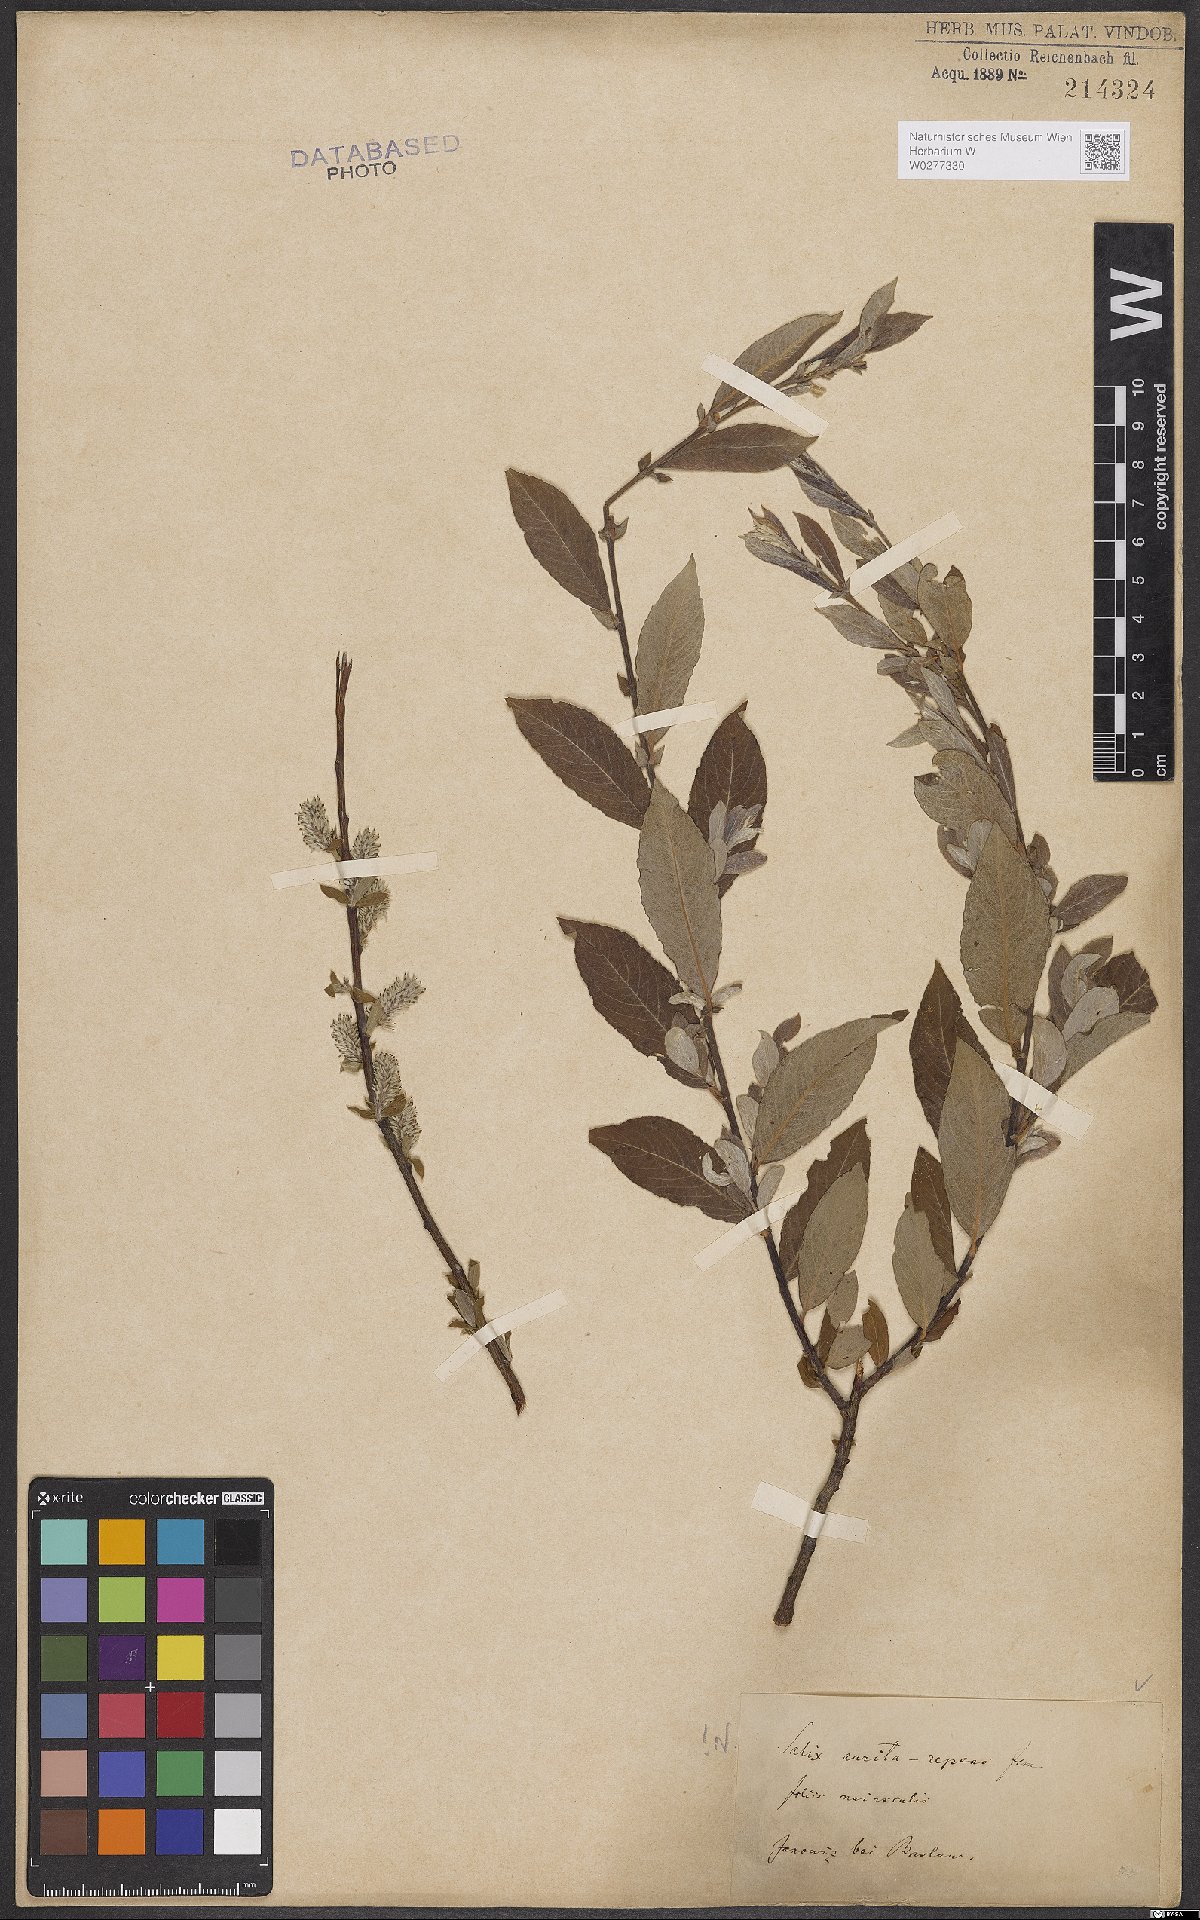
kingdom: Plantae
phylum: Tracheophyta
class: Magnoliopsida
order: Malpighiales
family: Salicaceae
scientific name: Salicaceae
